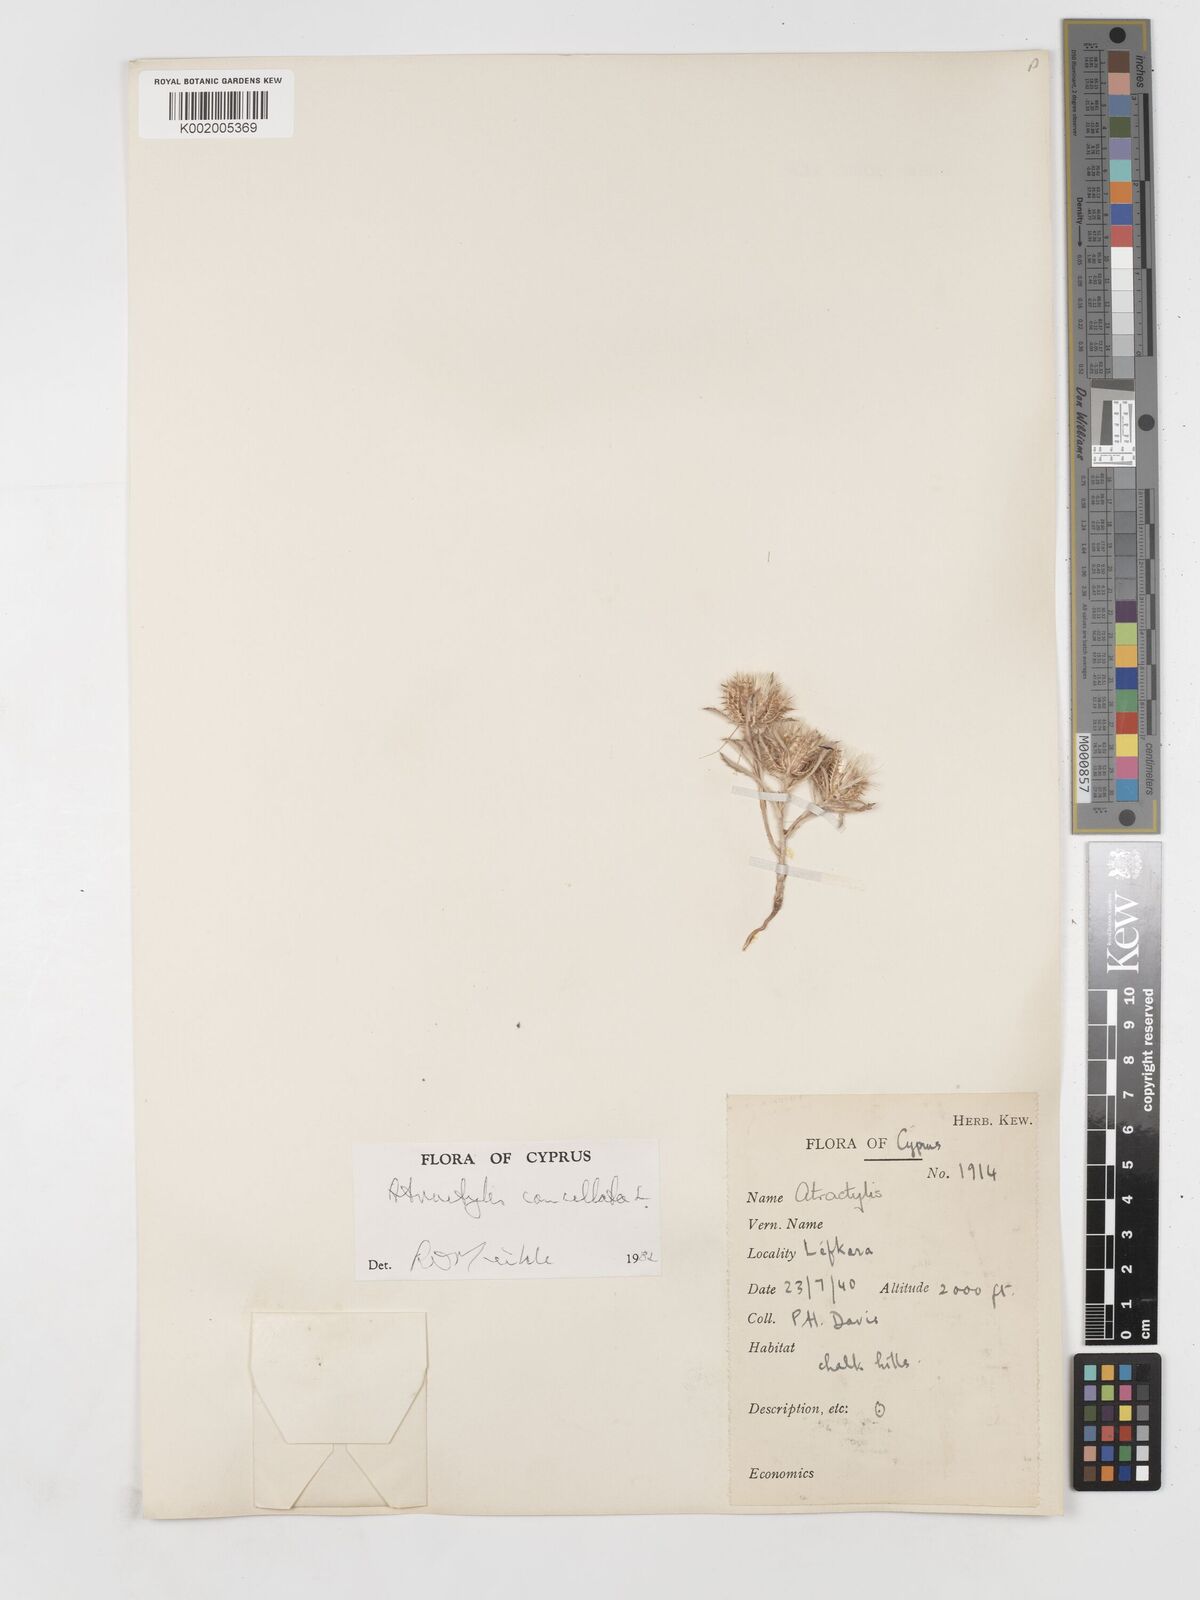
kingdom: Plantae
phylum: Tracheophyta
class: Magnoliopsida
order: Asterales
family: Asteraceae
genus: Atractylis
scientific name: Atractylis cancellata
